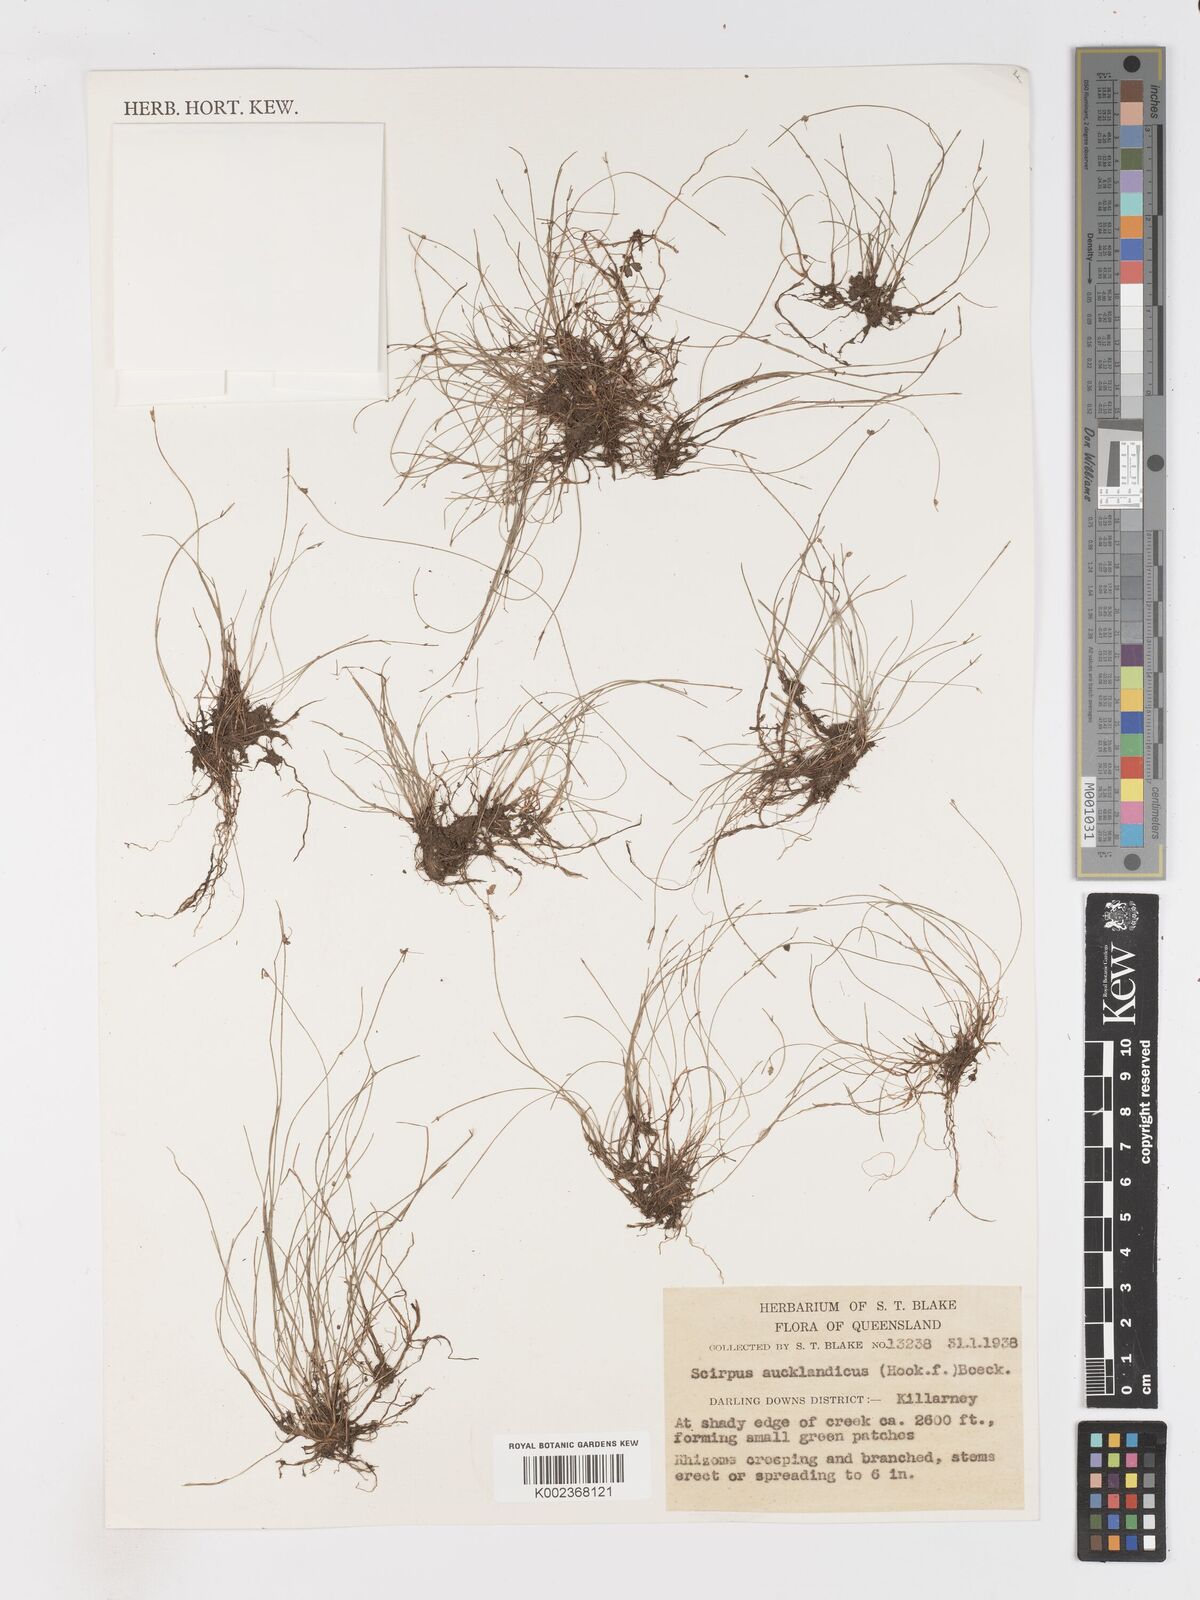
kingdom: Plantae
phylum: Tracheophyta
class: Liliopsida
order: Poales
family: Cyperaceae
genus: Isolepis
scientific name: Isolepis aucklandica
